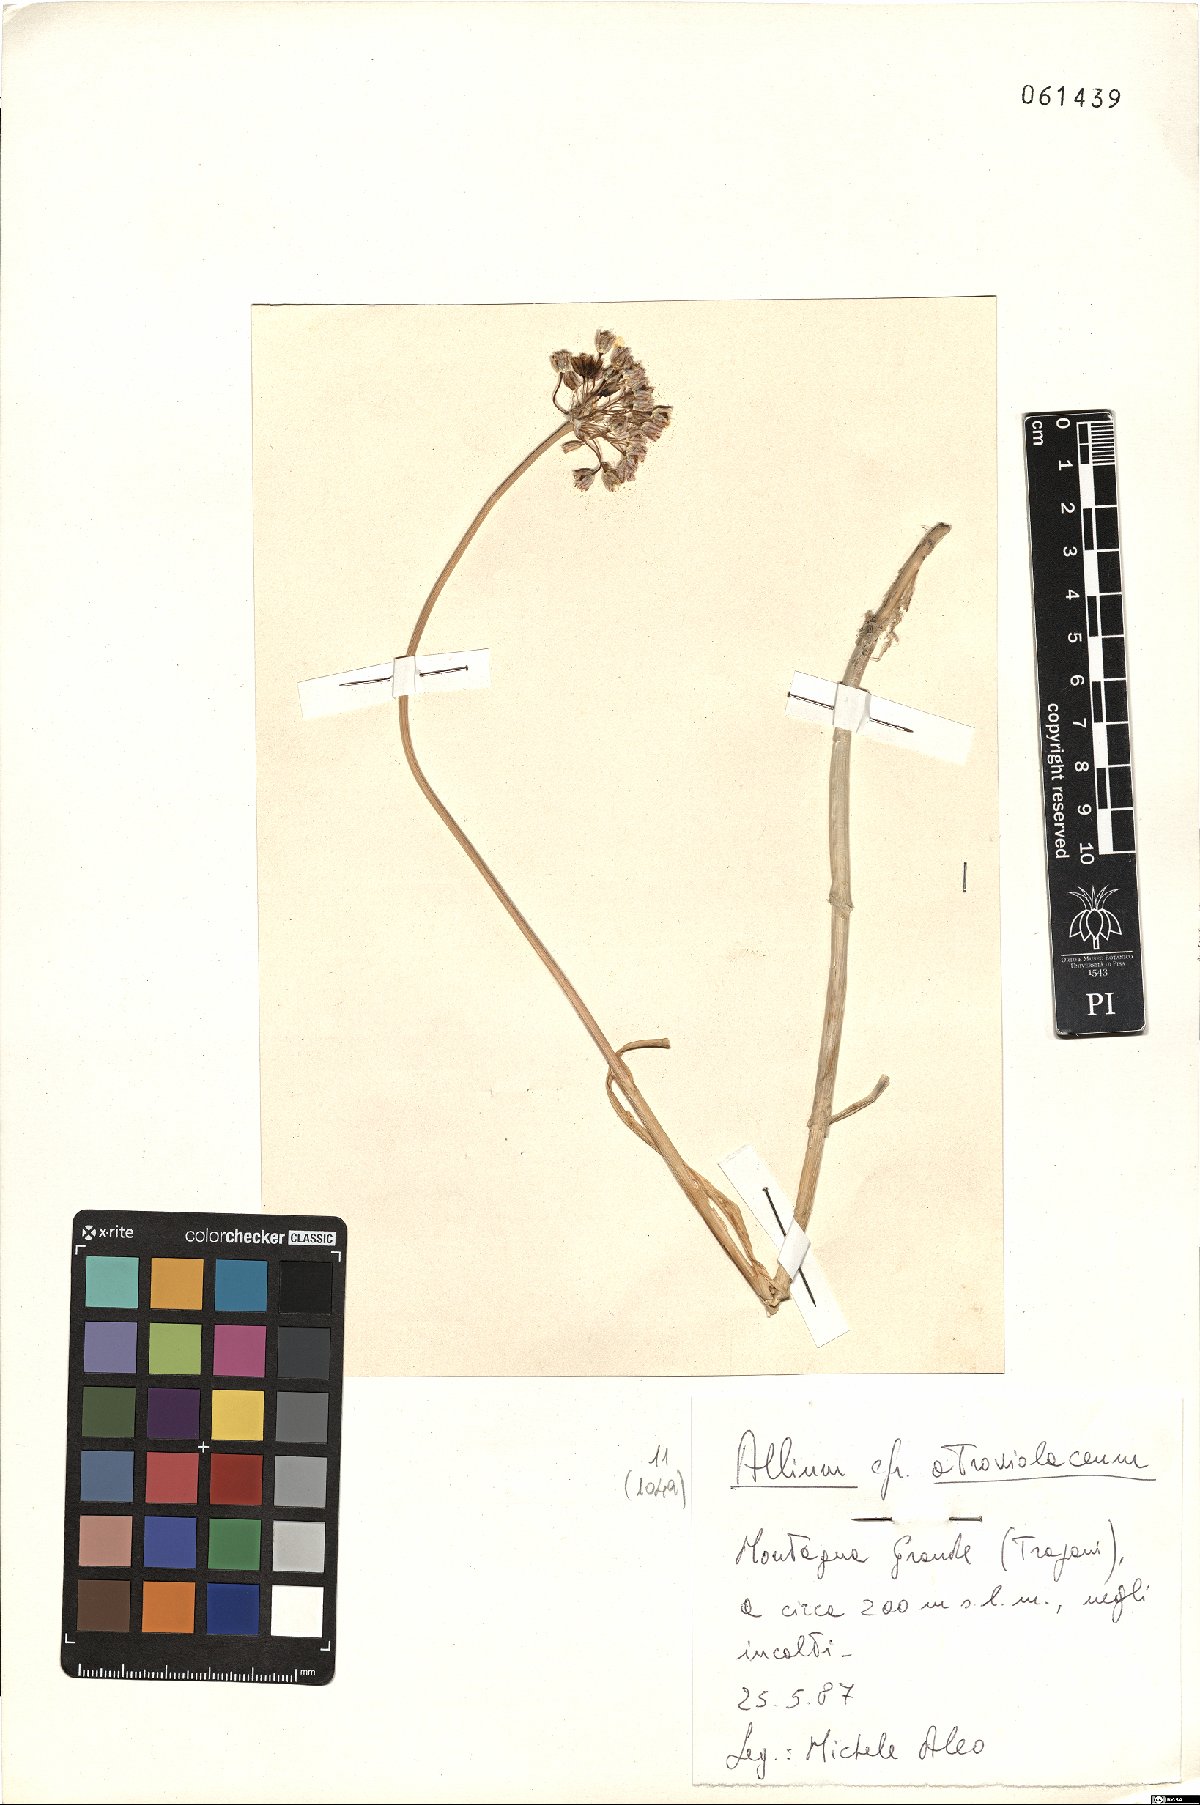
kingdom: Plantae
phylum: Tracheophyta
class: Liliopsida
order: Asparagales
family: Amaryllidaceae
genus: Allium
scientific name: Allium atroviolaceum
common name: Broadleaf wild leek
